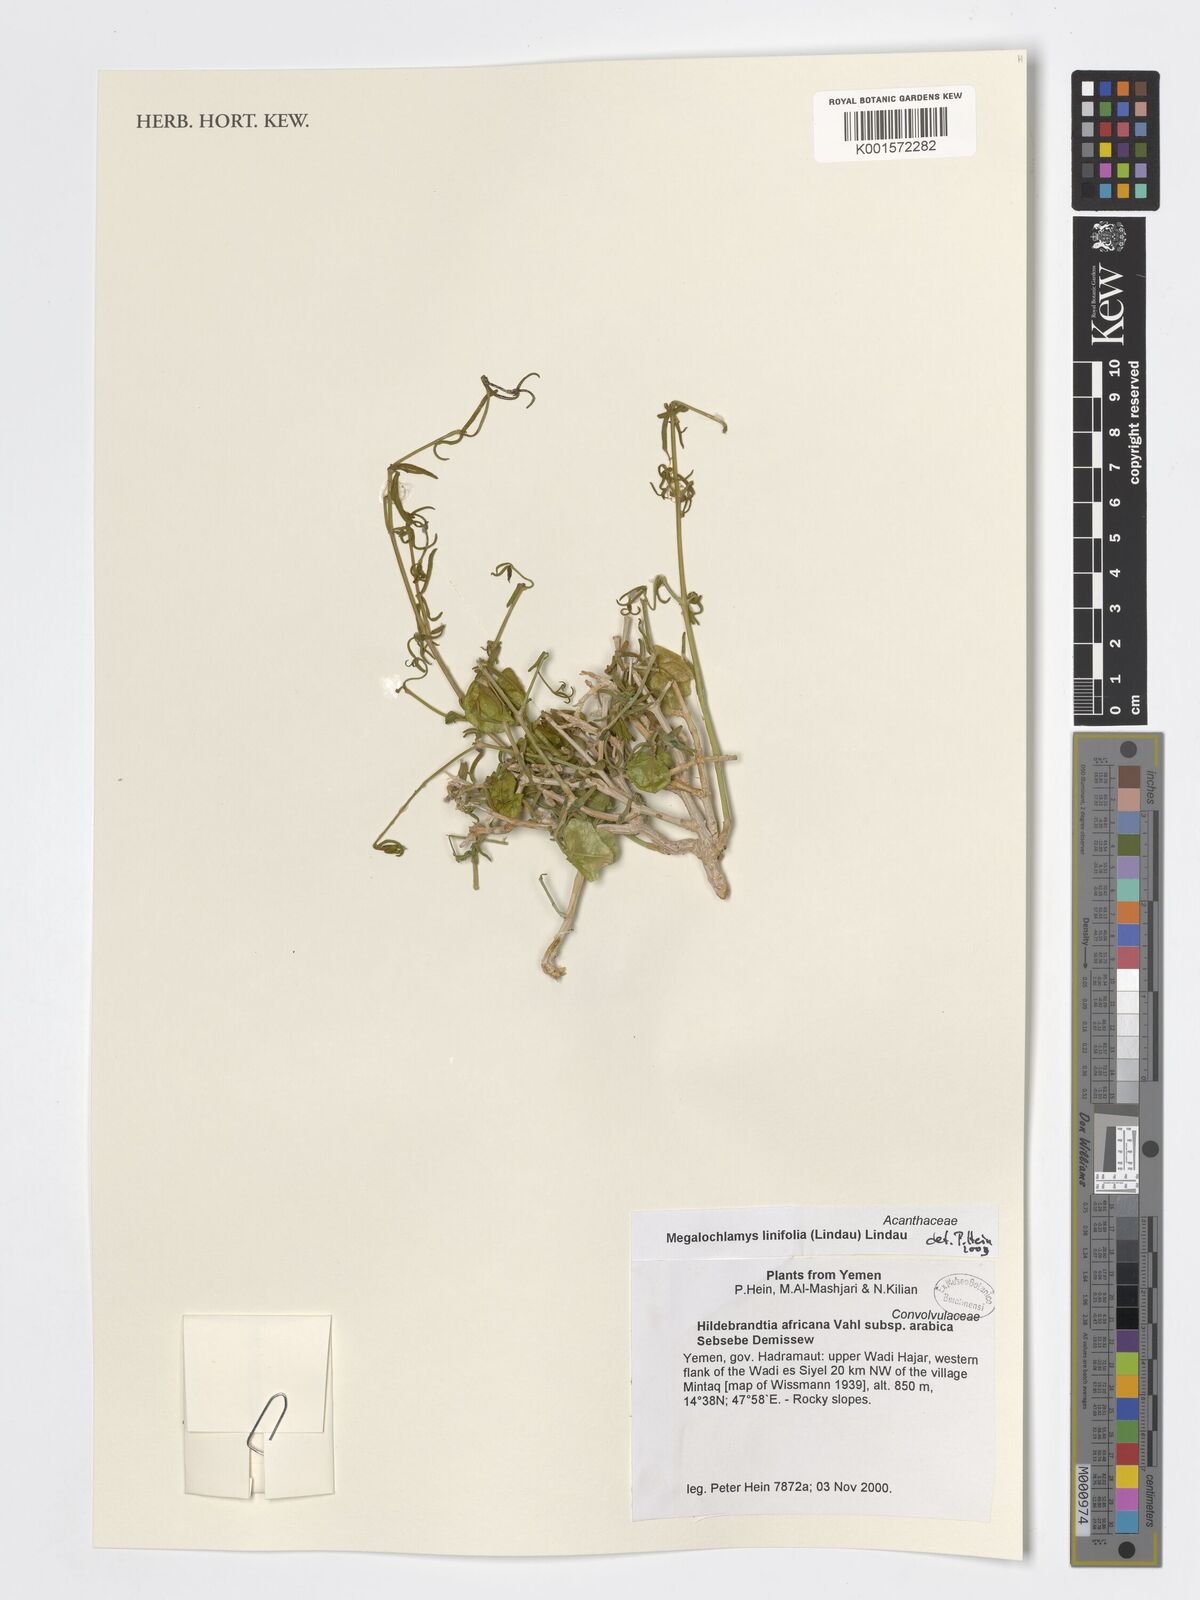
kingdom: Plantae
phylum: Tracheophyta
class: Magnoliopsida
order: Lamiales
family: Acanthaceae
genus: Megalochlamys
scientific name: Megalochlamys linifolia
